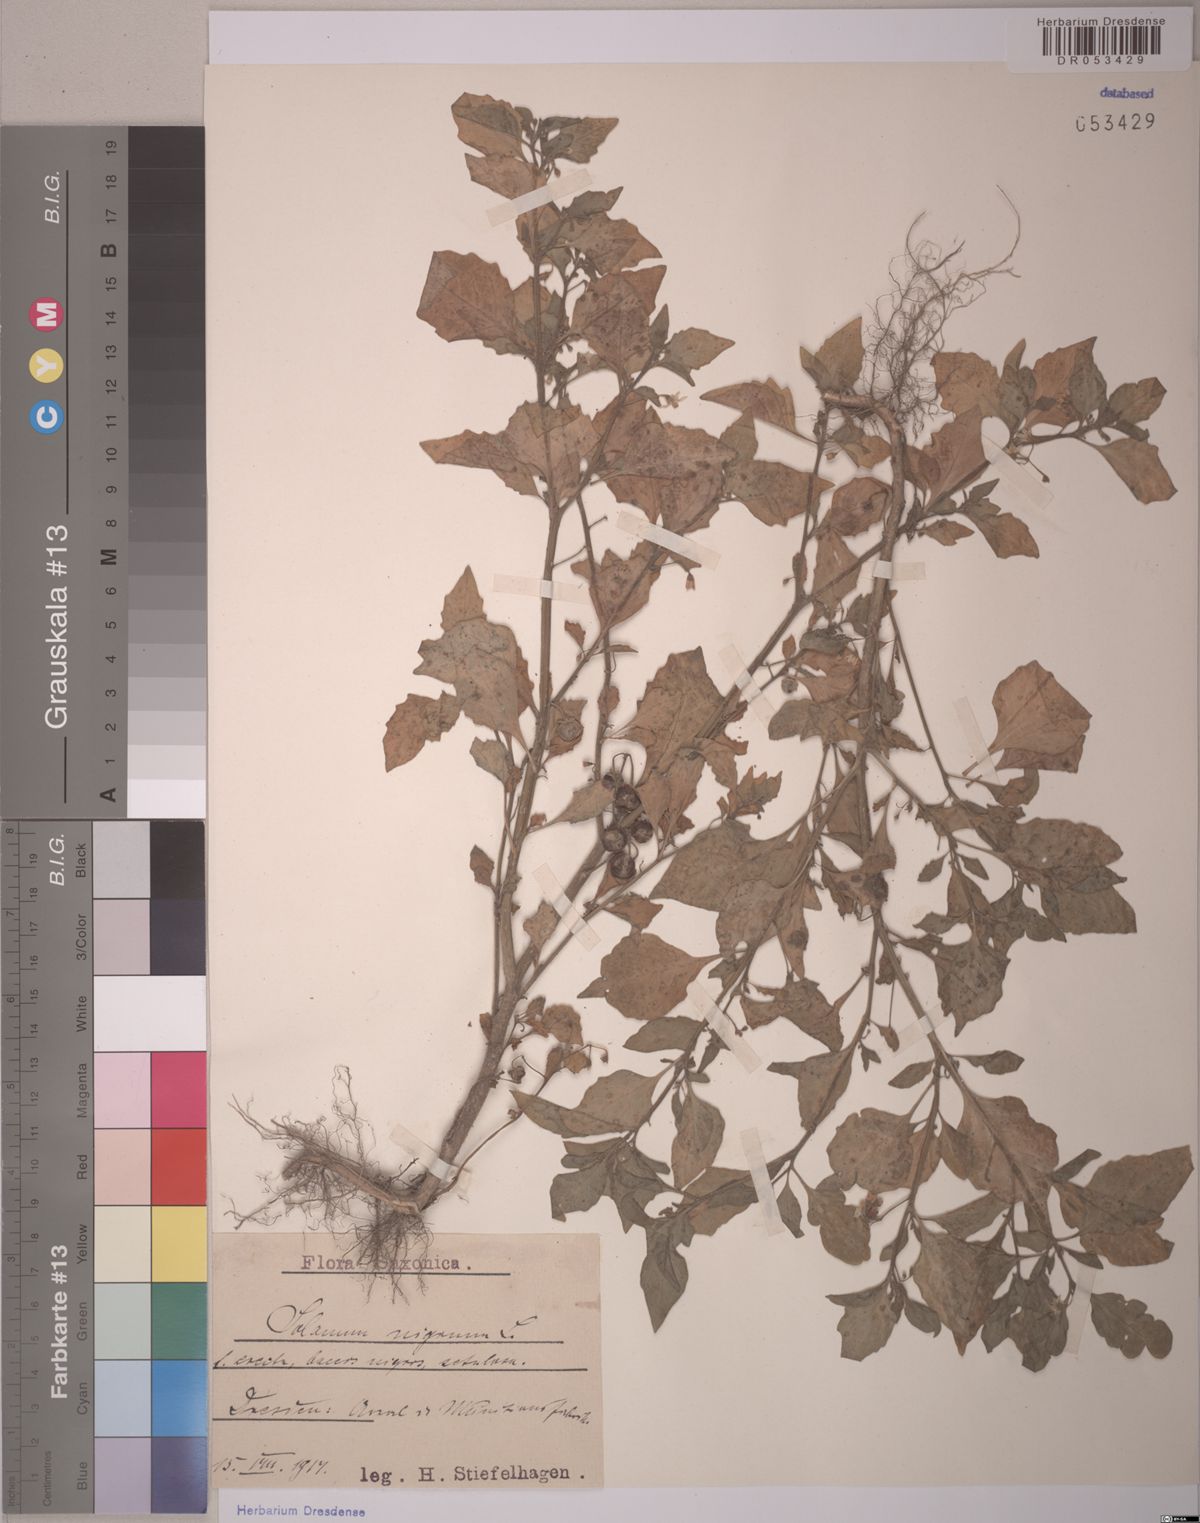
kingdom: Plantae
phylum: Tracheophyta
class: Magnoliopsida
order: Solanales
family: Solanaceae
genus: Solanum
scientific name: Solanum nigrum
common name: Black nightshade
